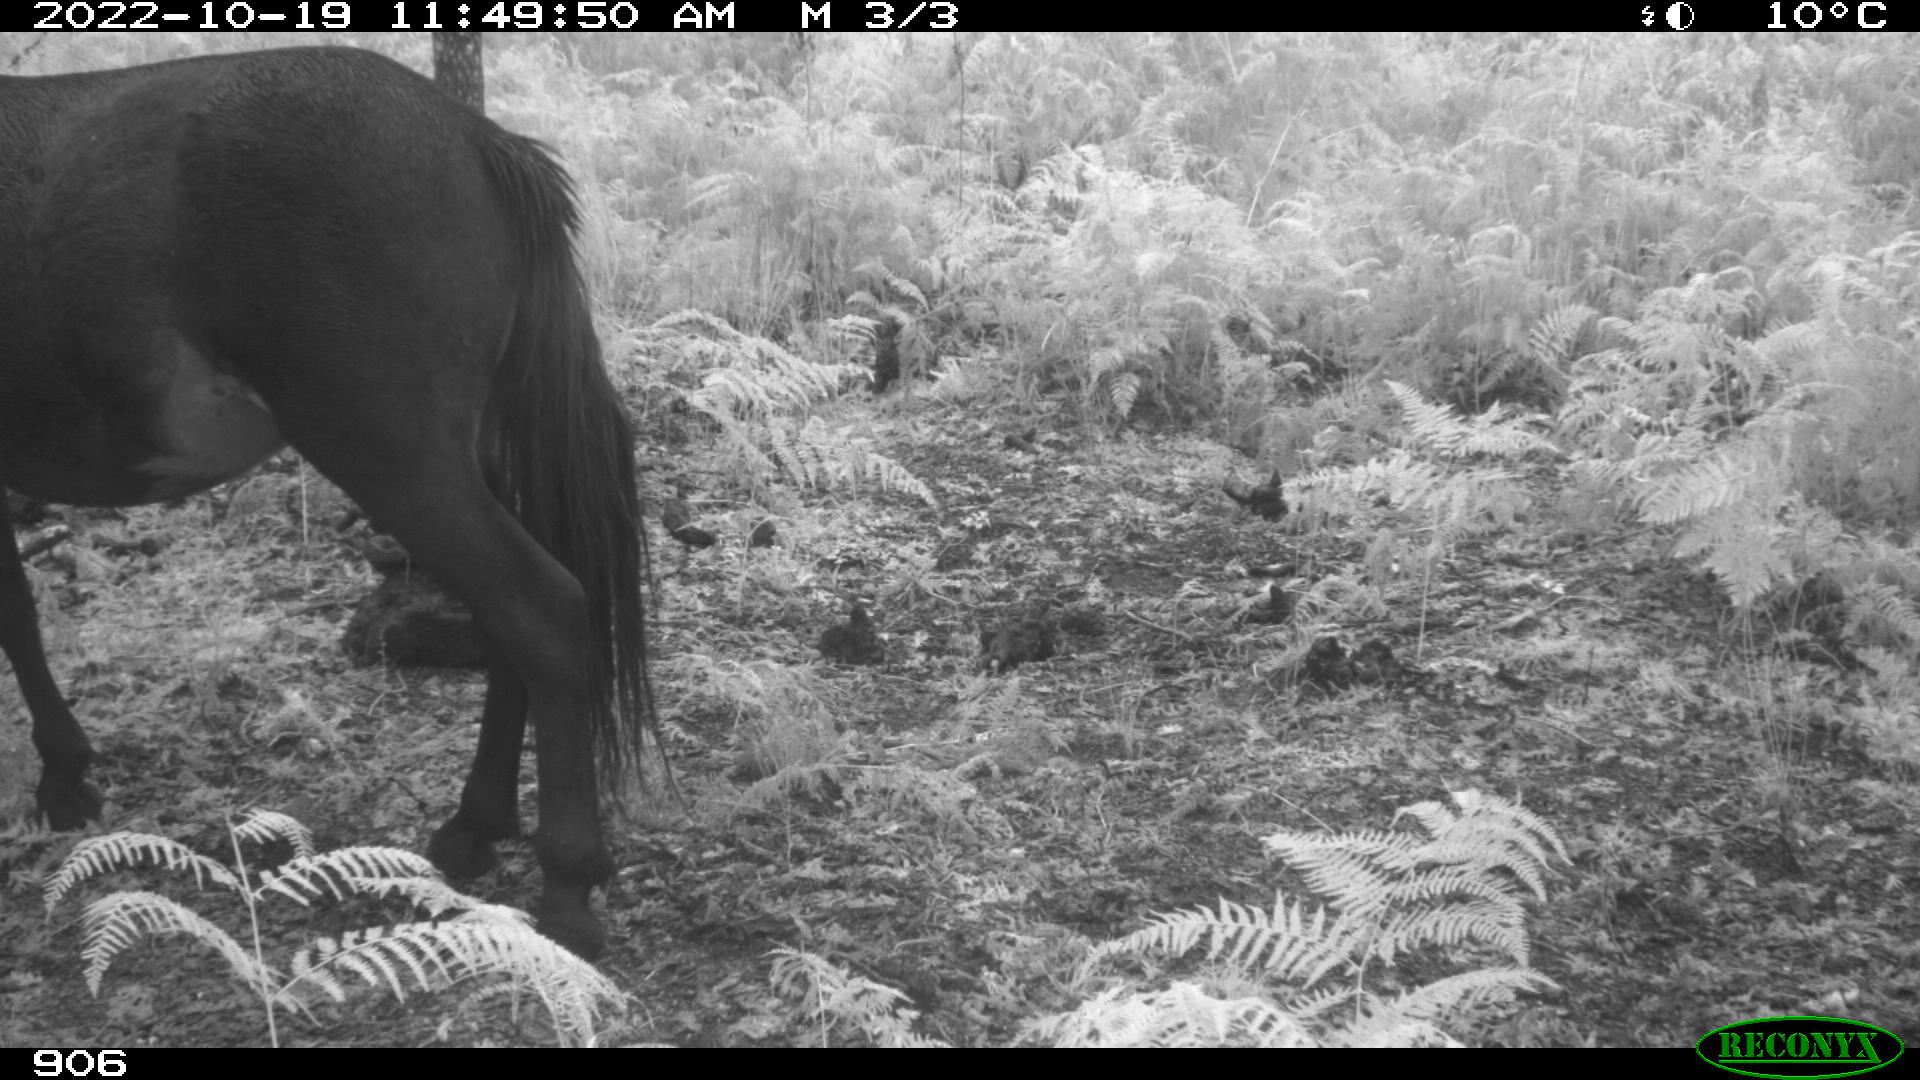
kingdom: Animalia
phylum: Chordata
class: Mammalia
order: Perissodactyla
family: Equidae
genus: Equus
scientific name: Equus caballus
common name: Horse
